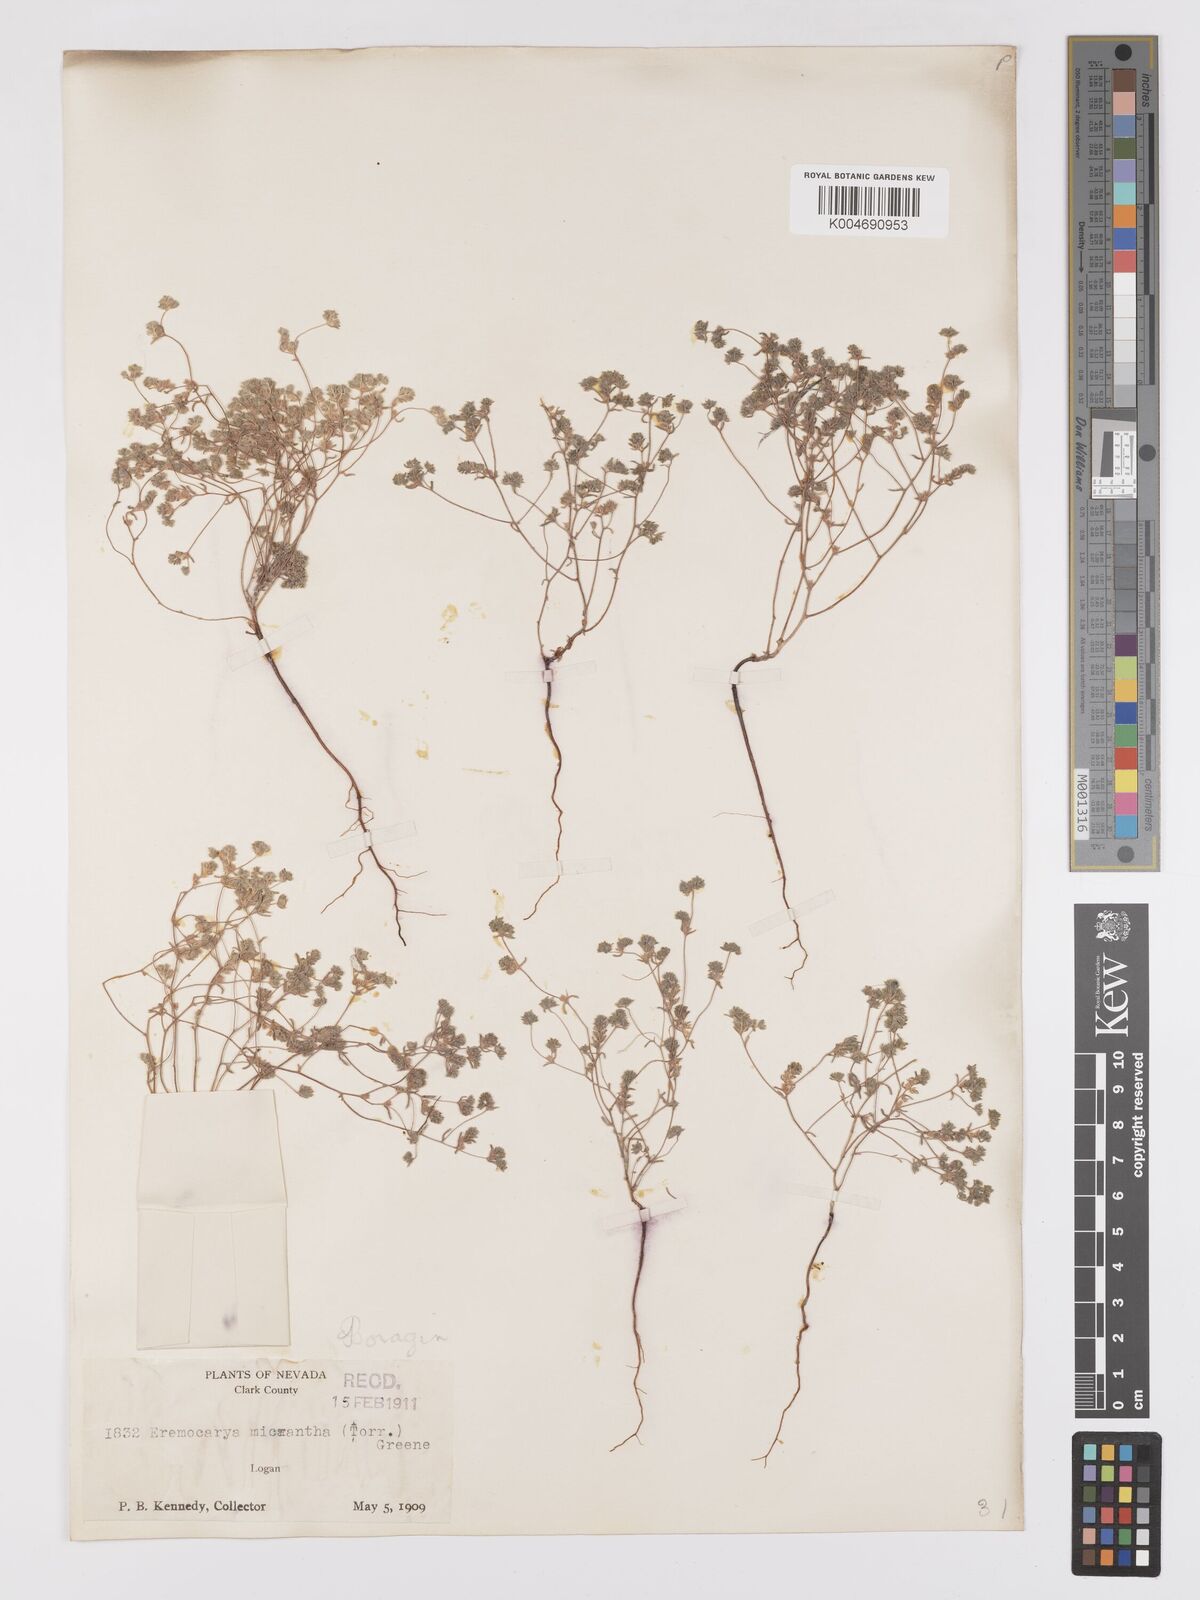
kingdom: Plantae
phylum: Tracheophyta
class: Magnoliopsida
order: Boraginales
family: Boraginaceae
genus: Eremocarya
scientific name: Eremocarya micrantha
